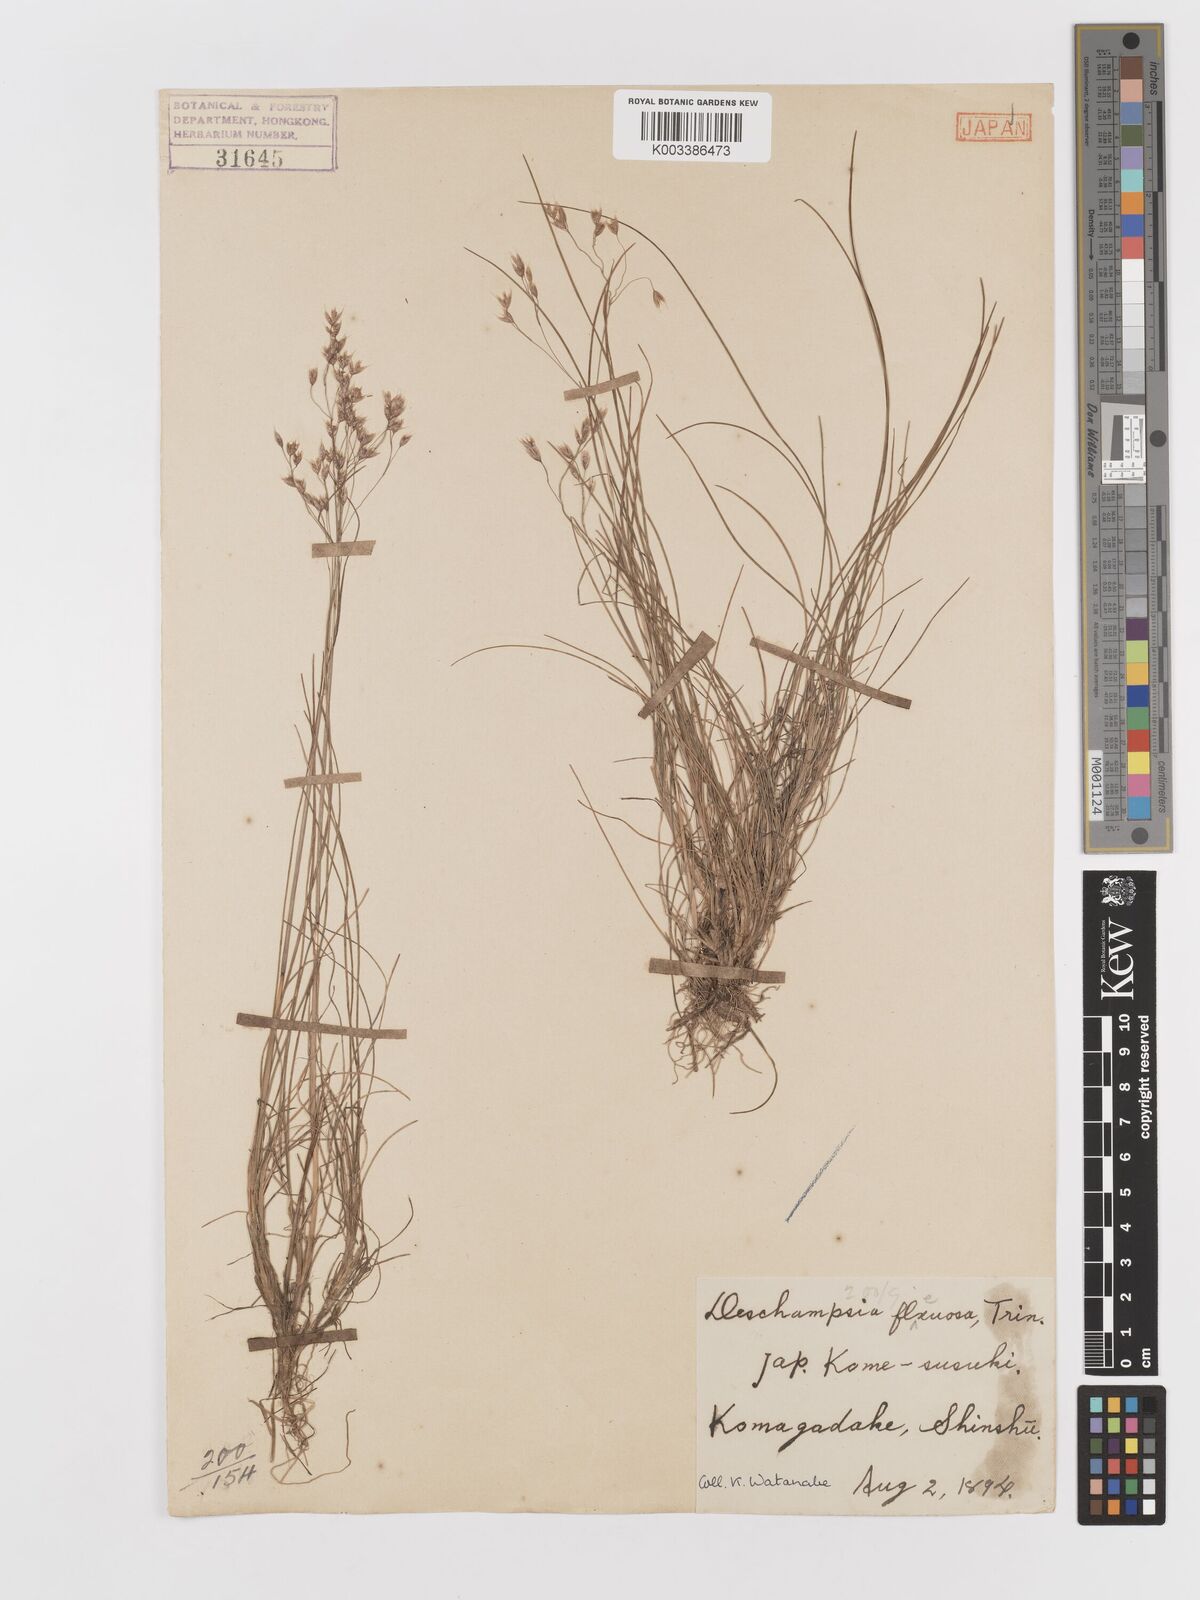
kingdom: Plantae
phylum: Tracheophyta
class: Liliopsida
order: Poales
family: Poaceae
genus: Avenella
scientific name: Avenella flexuosa
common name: Wavy hairgrass
